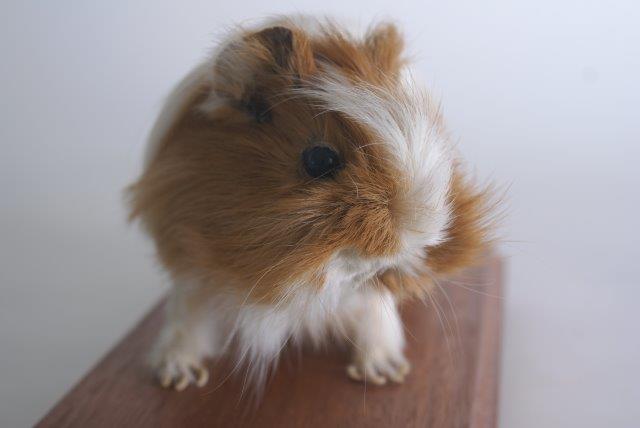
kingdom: Animalia
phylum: Chordata
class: Mammalia
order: Rodentia
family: Caviidae
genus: Cavia
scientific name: Cavia aperea
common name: Brazilian Guinea Pig
